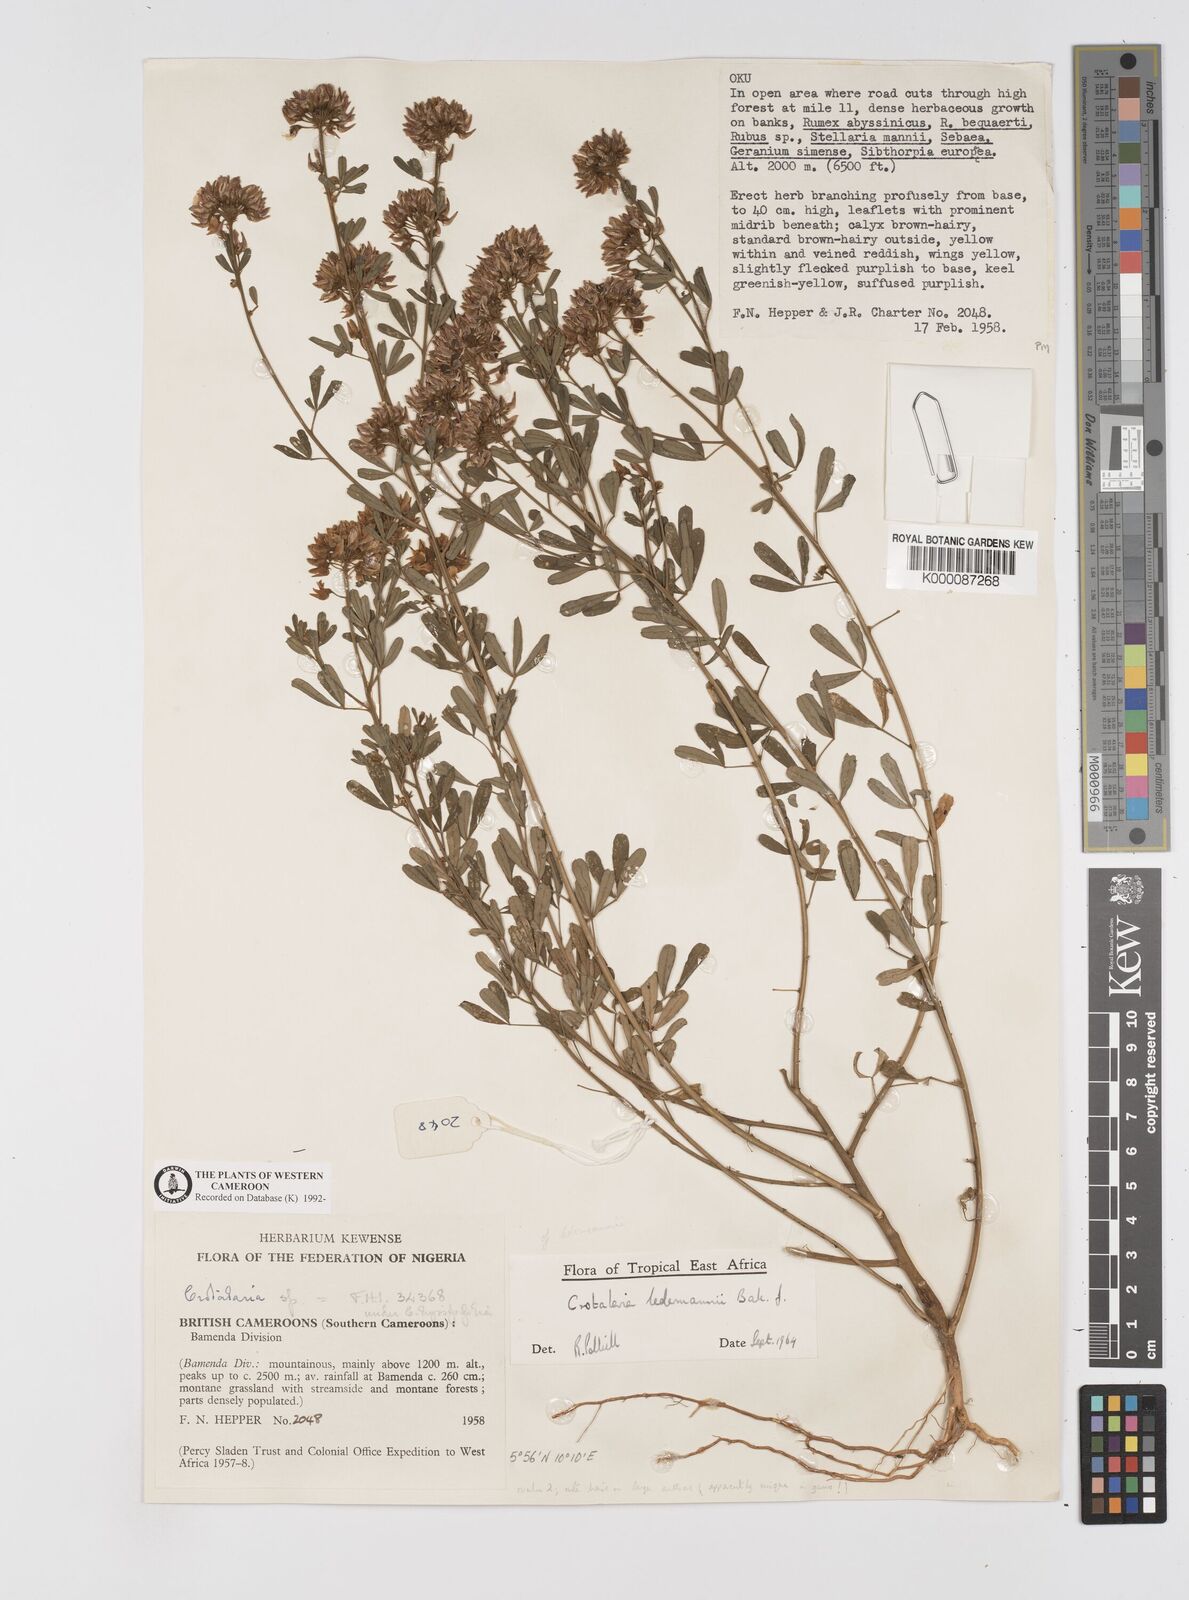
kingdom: Plantae
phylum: Tracheophyta
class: Magnoliopsida
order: Fabales
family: Fabaceae
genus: Crotalaria
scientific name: Crotalaria ledermannii
